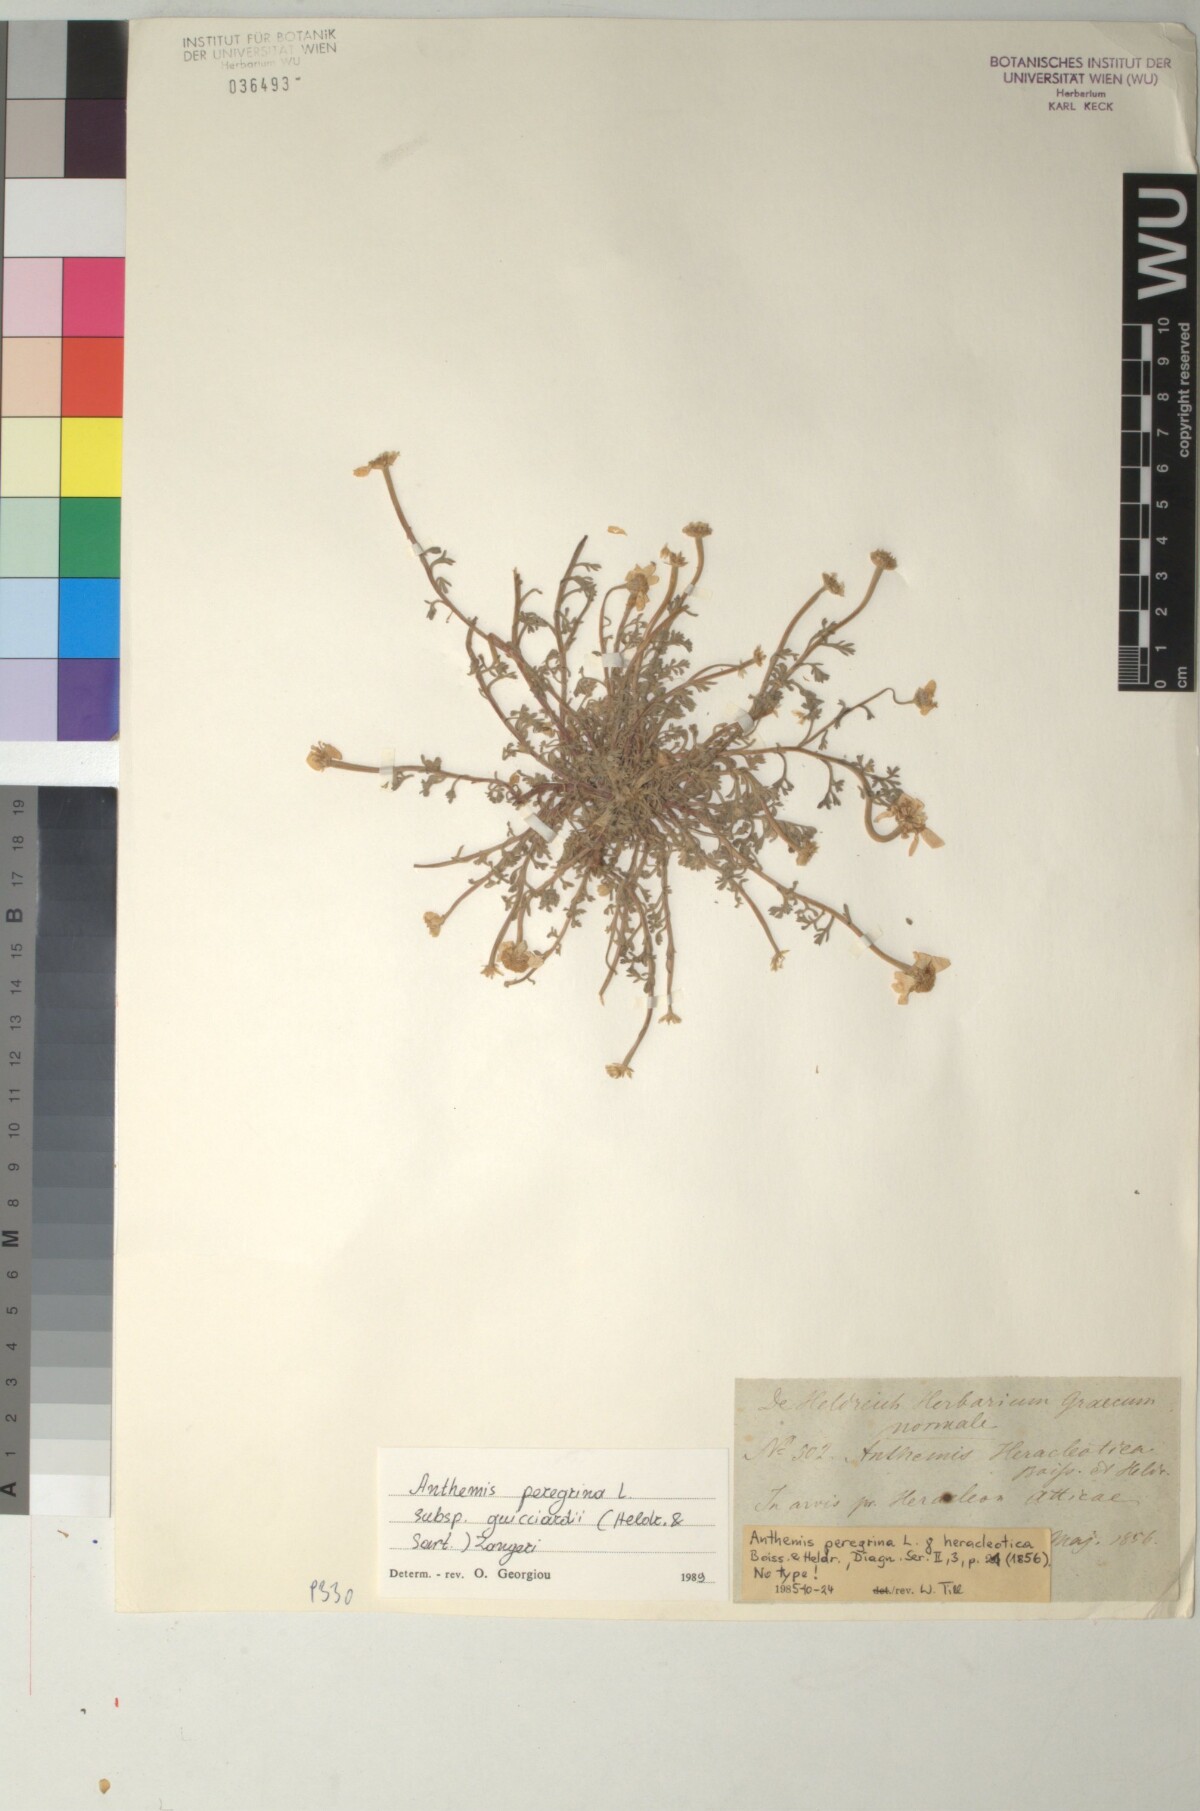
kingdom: Plantae
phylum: Tracheophyta
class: Magnoliopsida
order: Asterales
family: Asteraceae
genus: Anthemis
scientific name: Anthemis tomentosa
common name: Woolly chamomile
